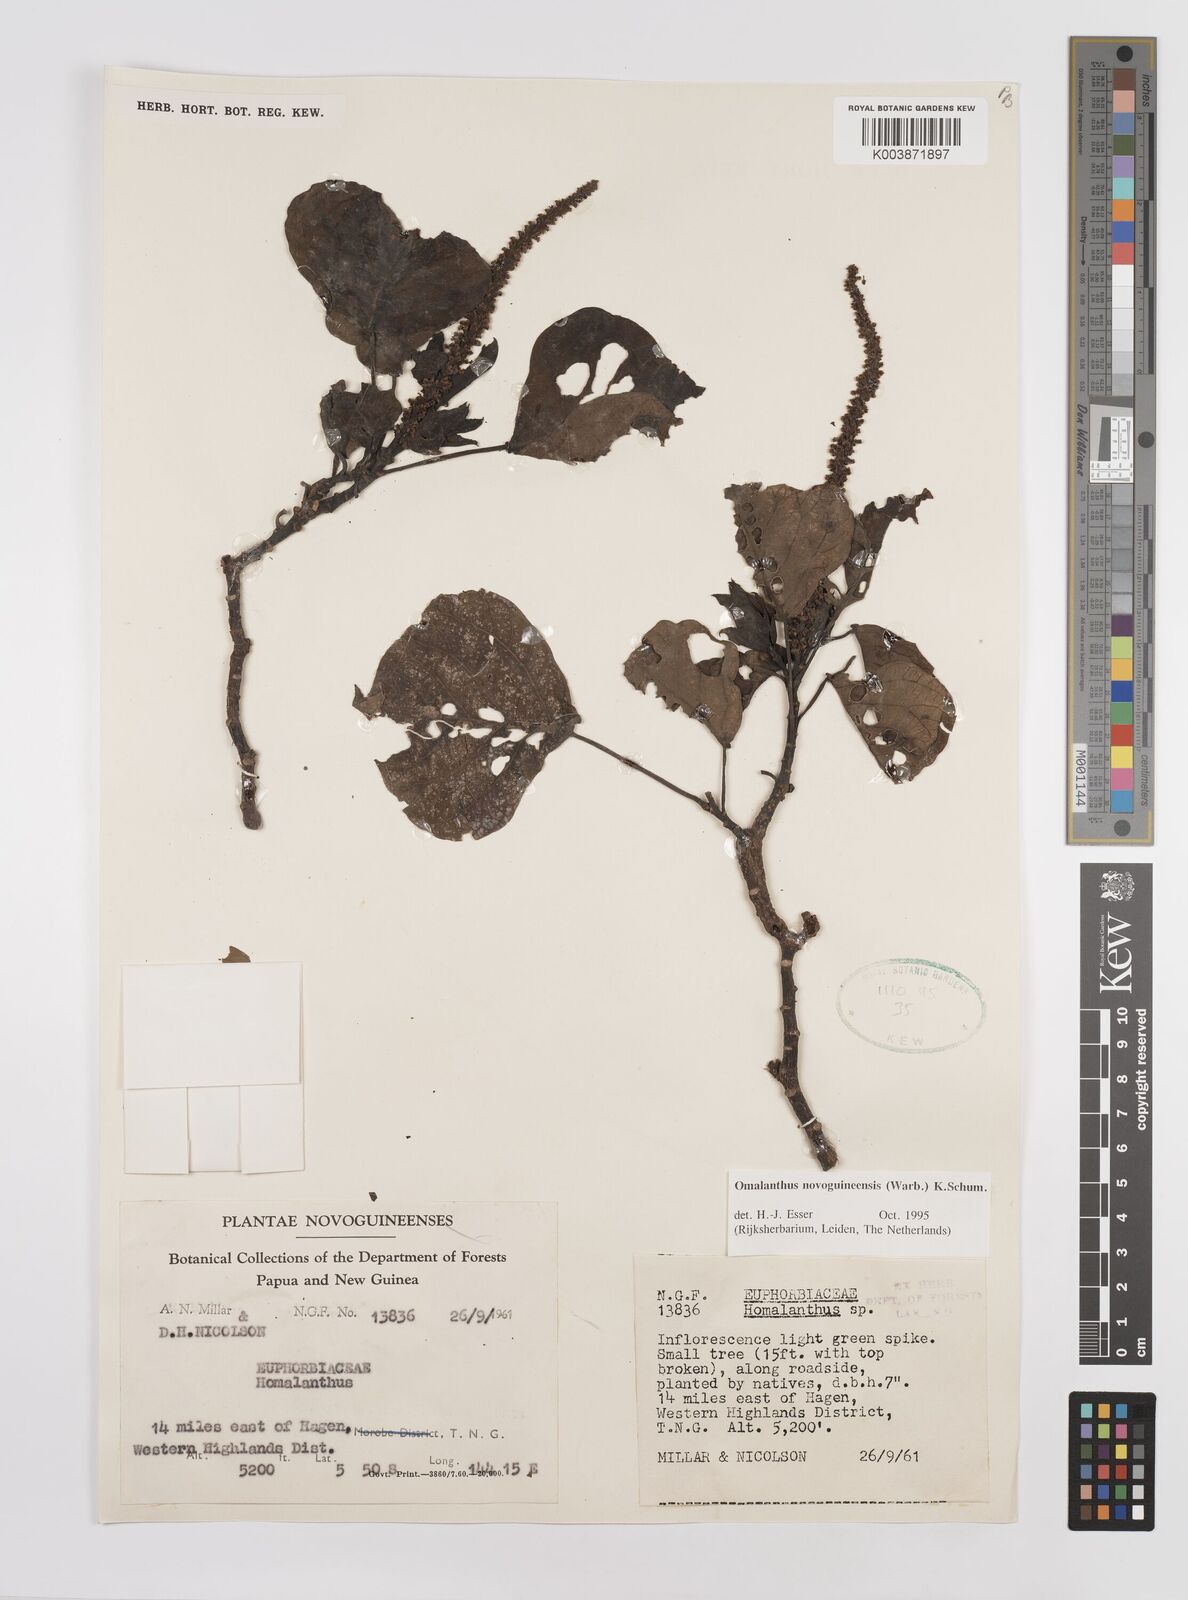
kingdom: Plantae
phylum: Tracheophyta
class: Magnoliopsida
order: Malpighiales
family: Euphorbiaceae
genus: Homalanthus
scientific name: Homalanthus novoguineensis
